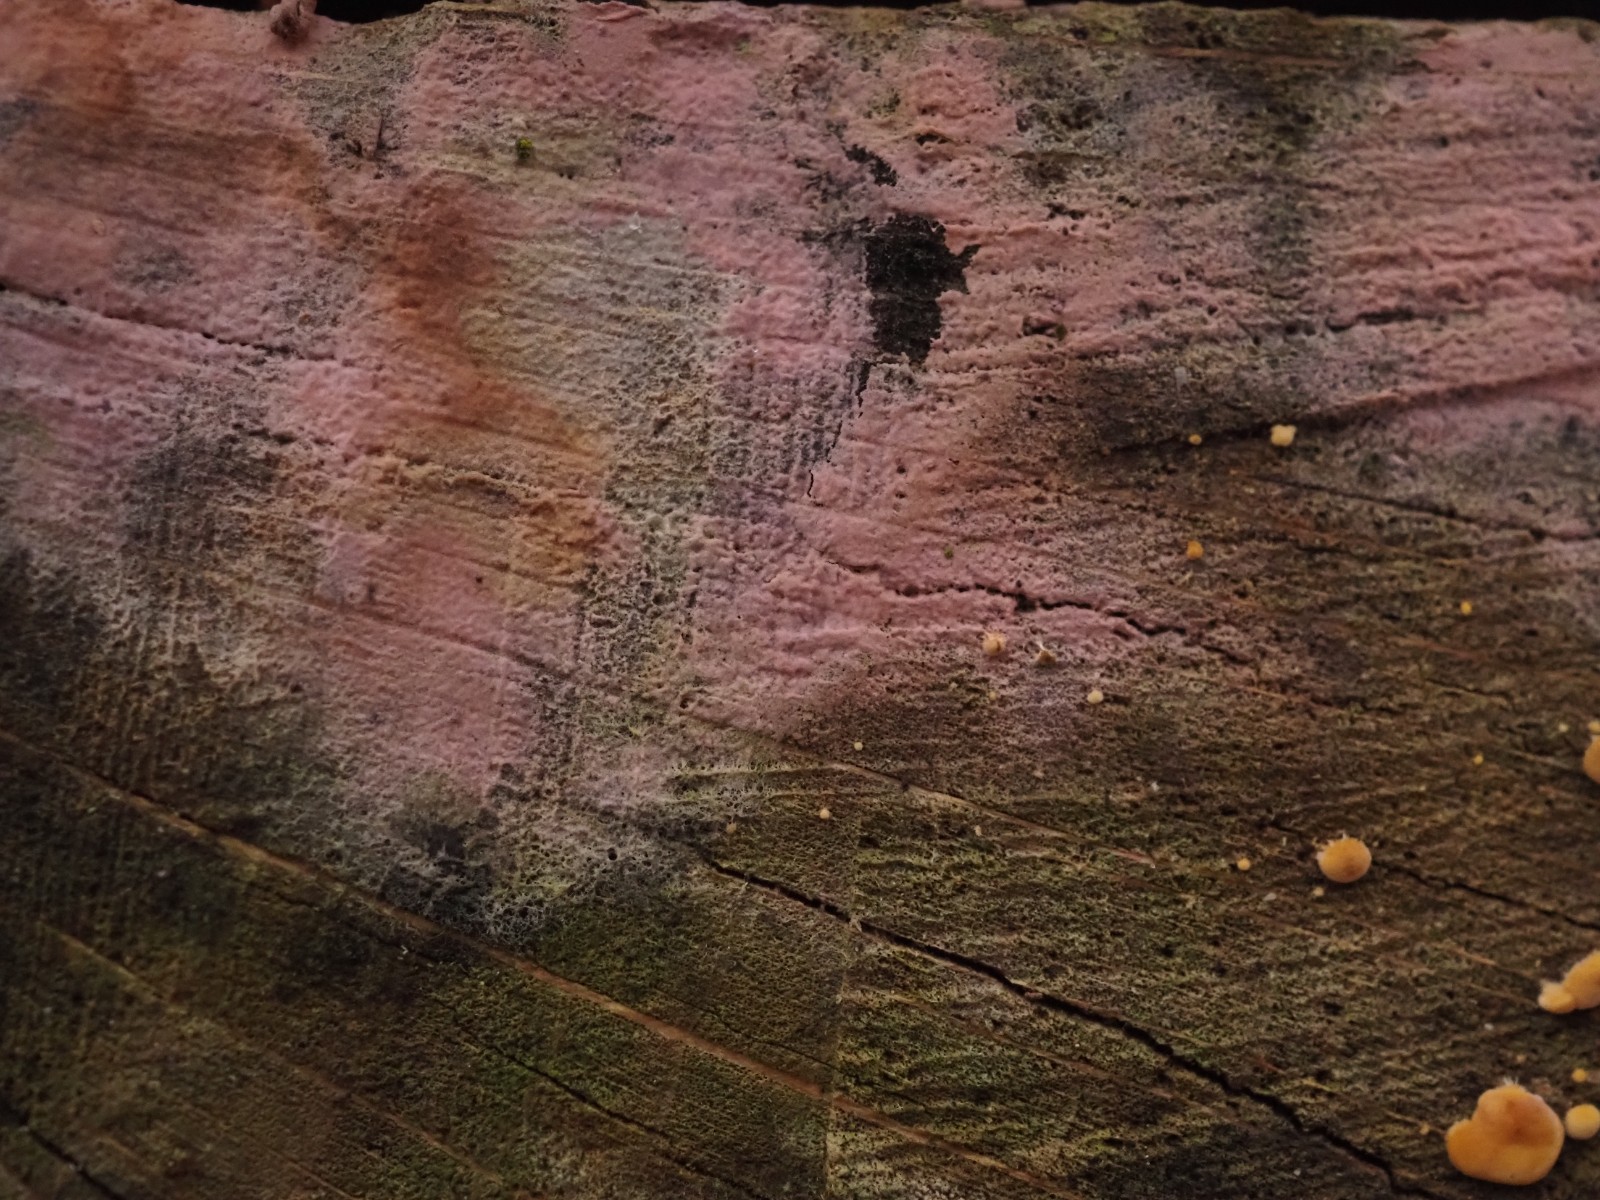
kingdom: Fungi
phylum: Basidiomycota
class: Agaricomycetes
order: Cantharellales
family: Tulasnellaceae
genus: Tulasnella
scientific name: Tulasnella violea
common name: violet ballonhinde
